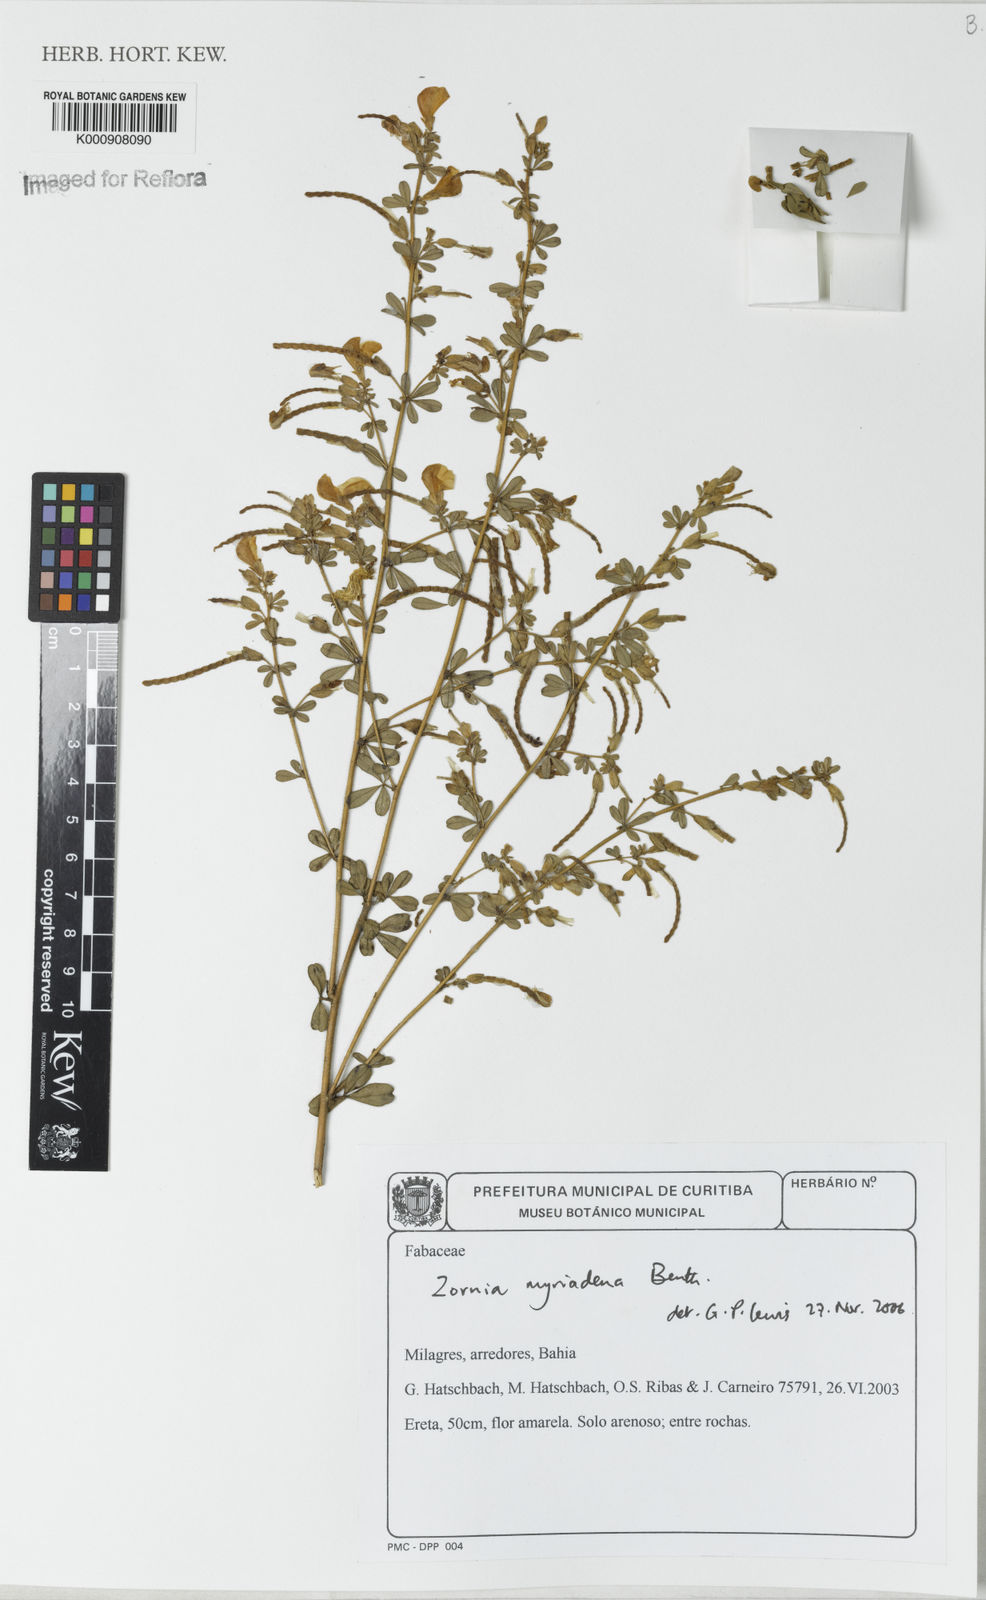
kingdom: Plantae
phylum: Tracheophyta
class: Magnoliopsida
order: Fabales
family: Fabaceae
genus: Zornia
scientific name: Zornia myriadena
